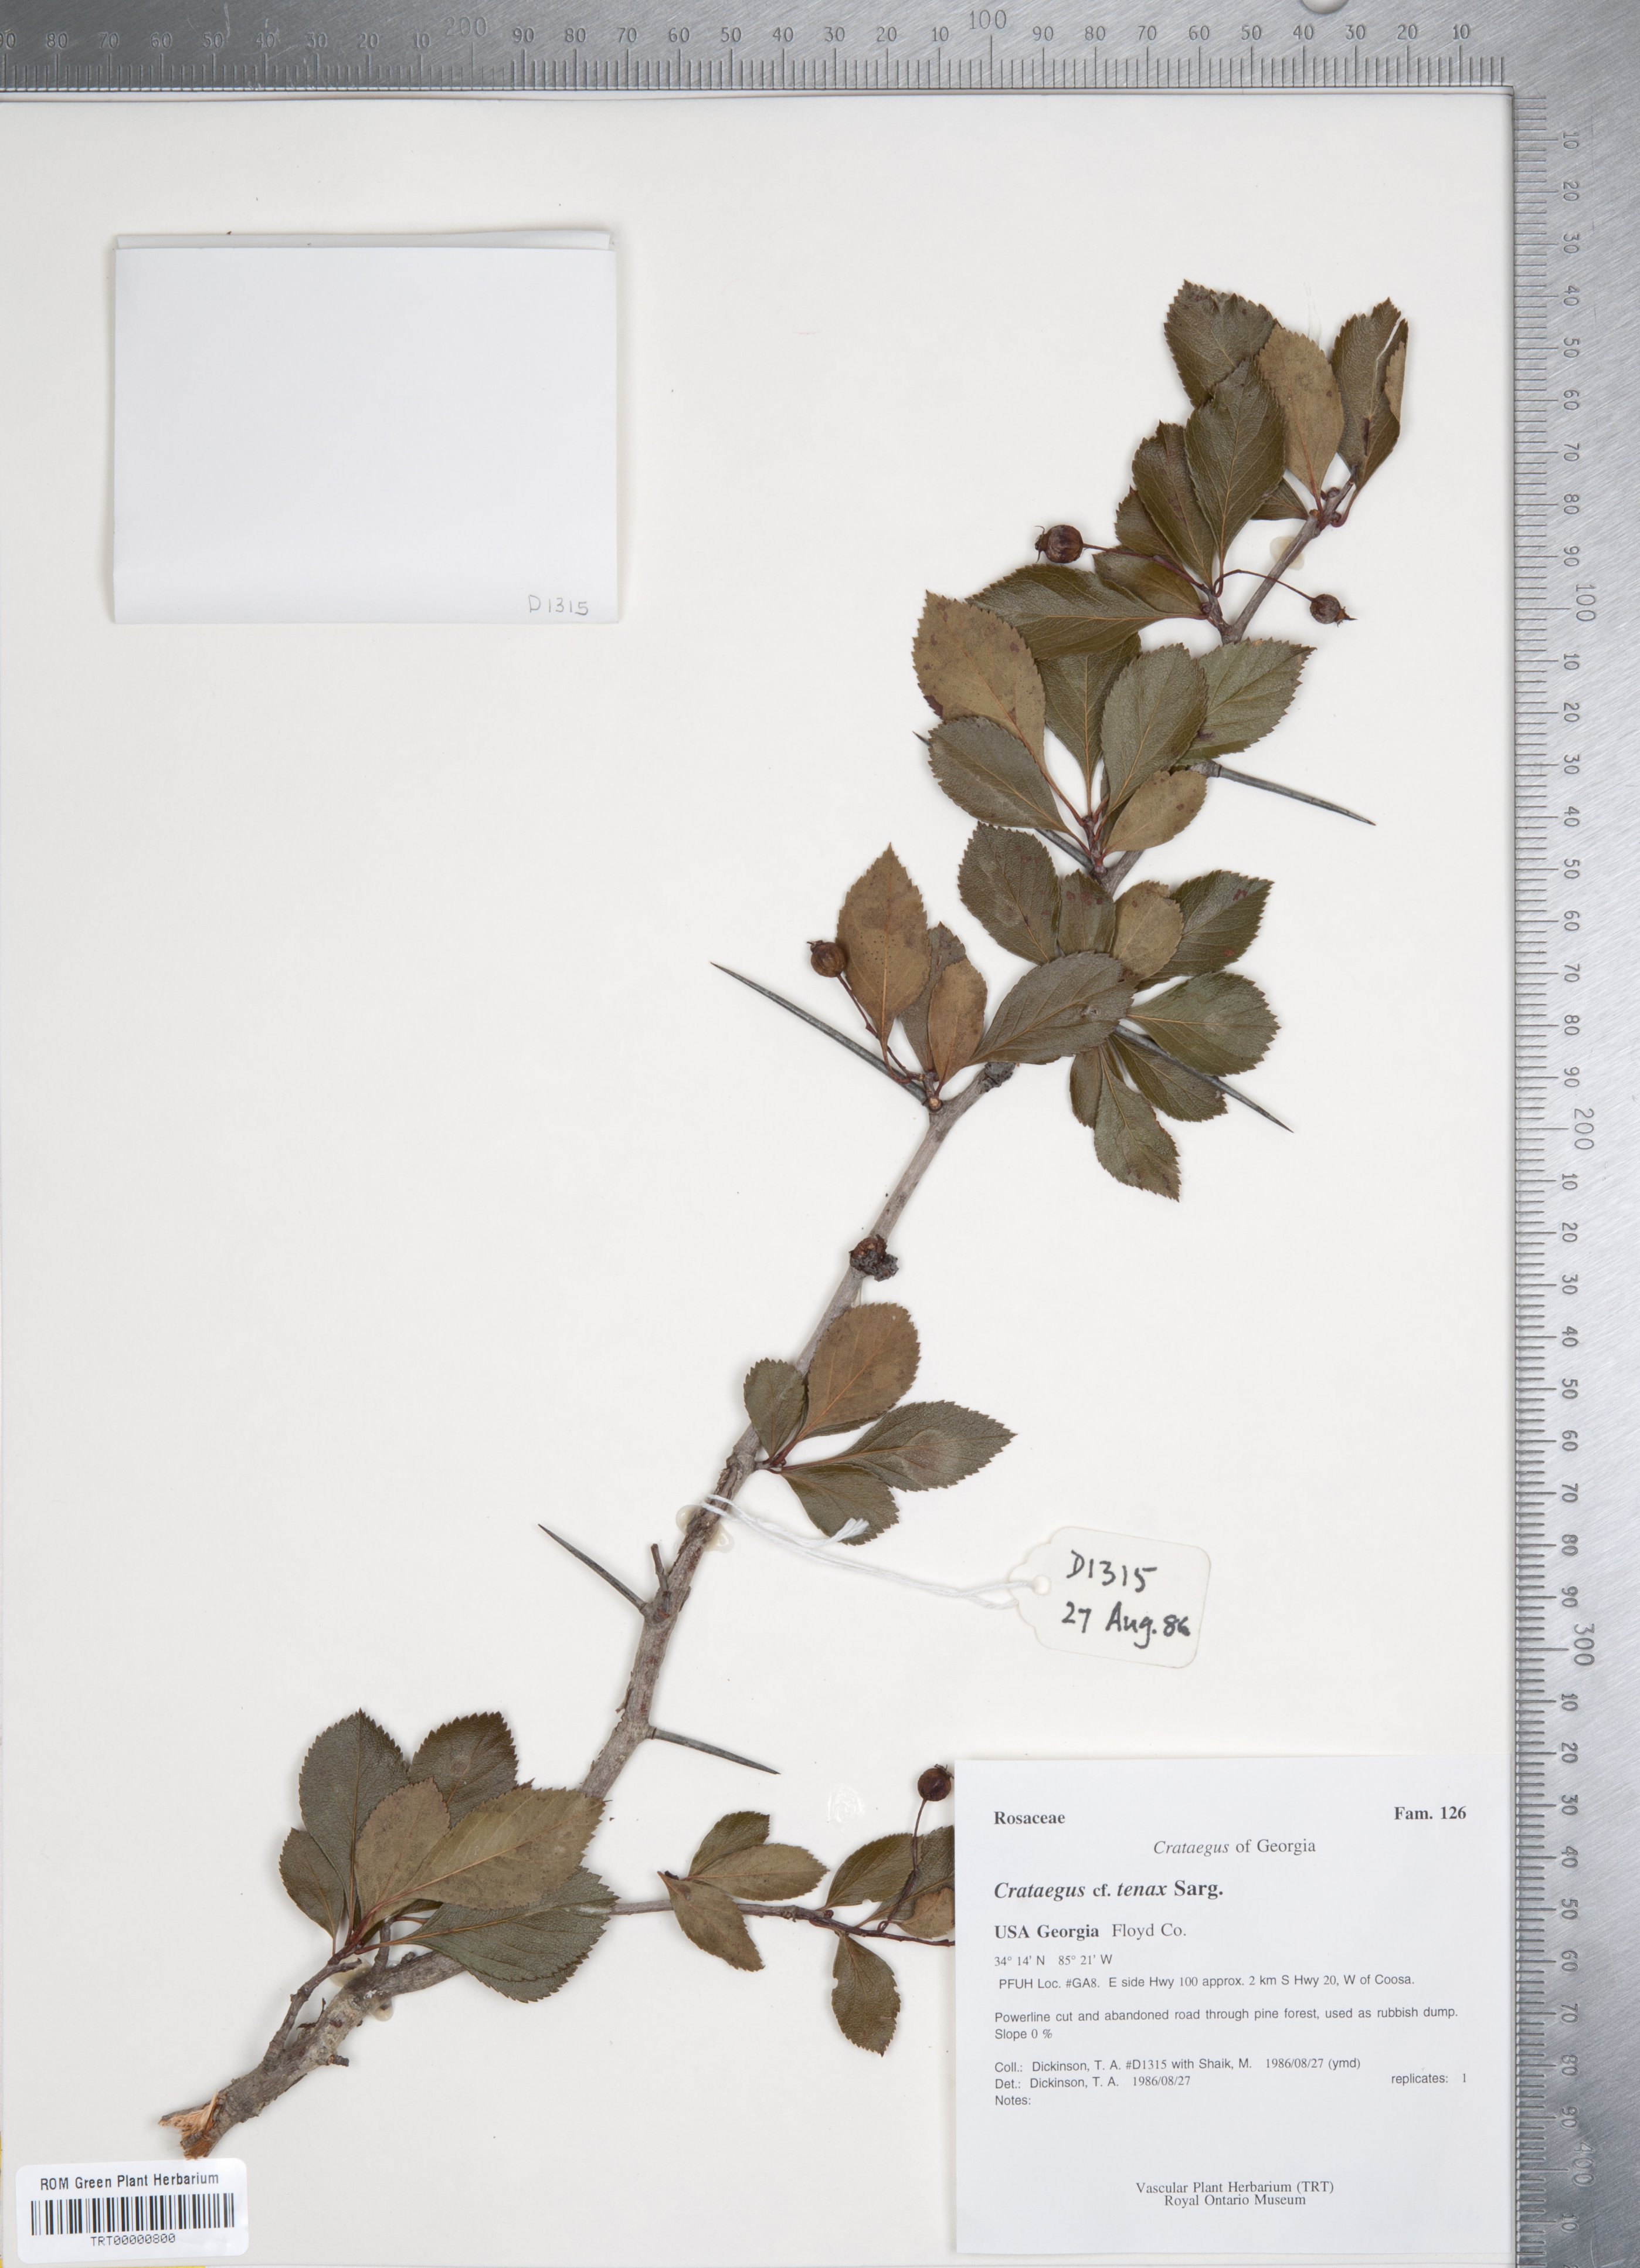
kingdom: Plantae
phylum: Tracheophyta
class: Magnoliopsida
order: Rosales
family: Rosaceae
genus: Crataegus
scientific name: Crataegus crus-galli
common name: Cockspurthorn
